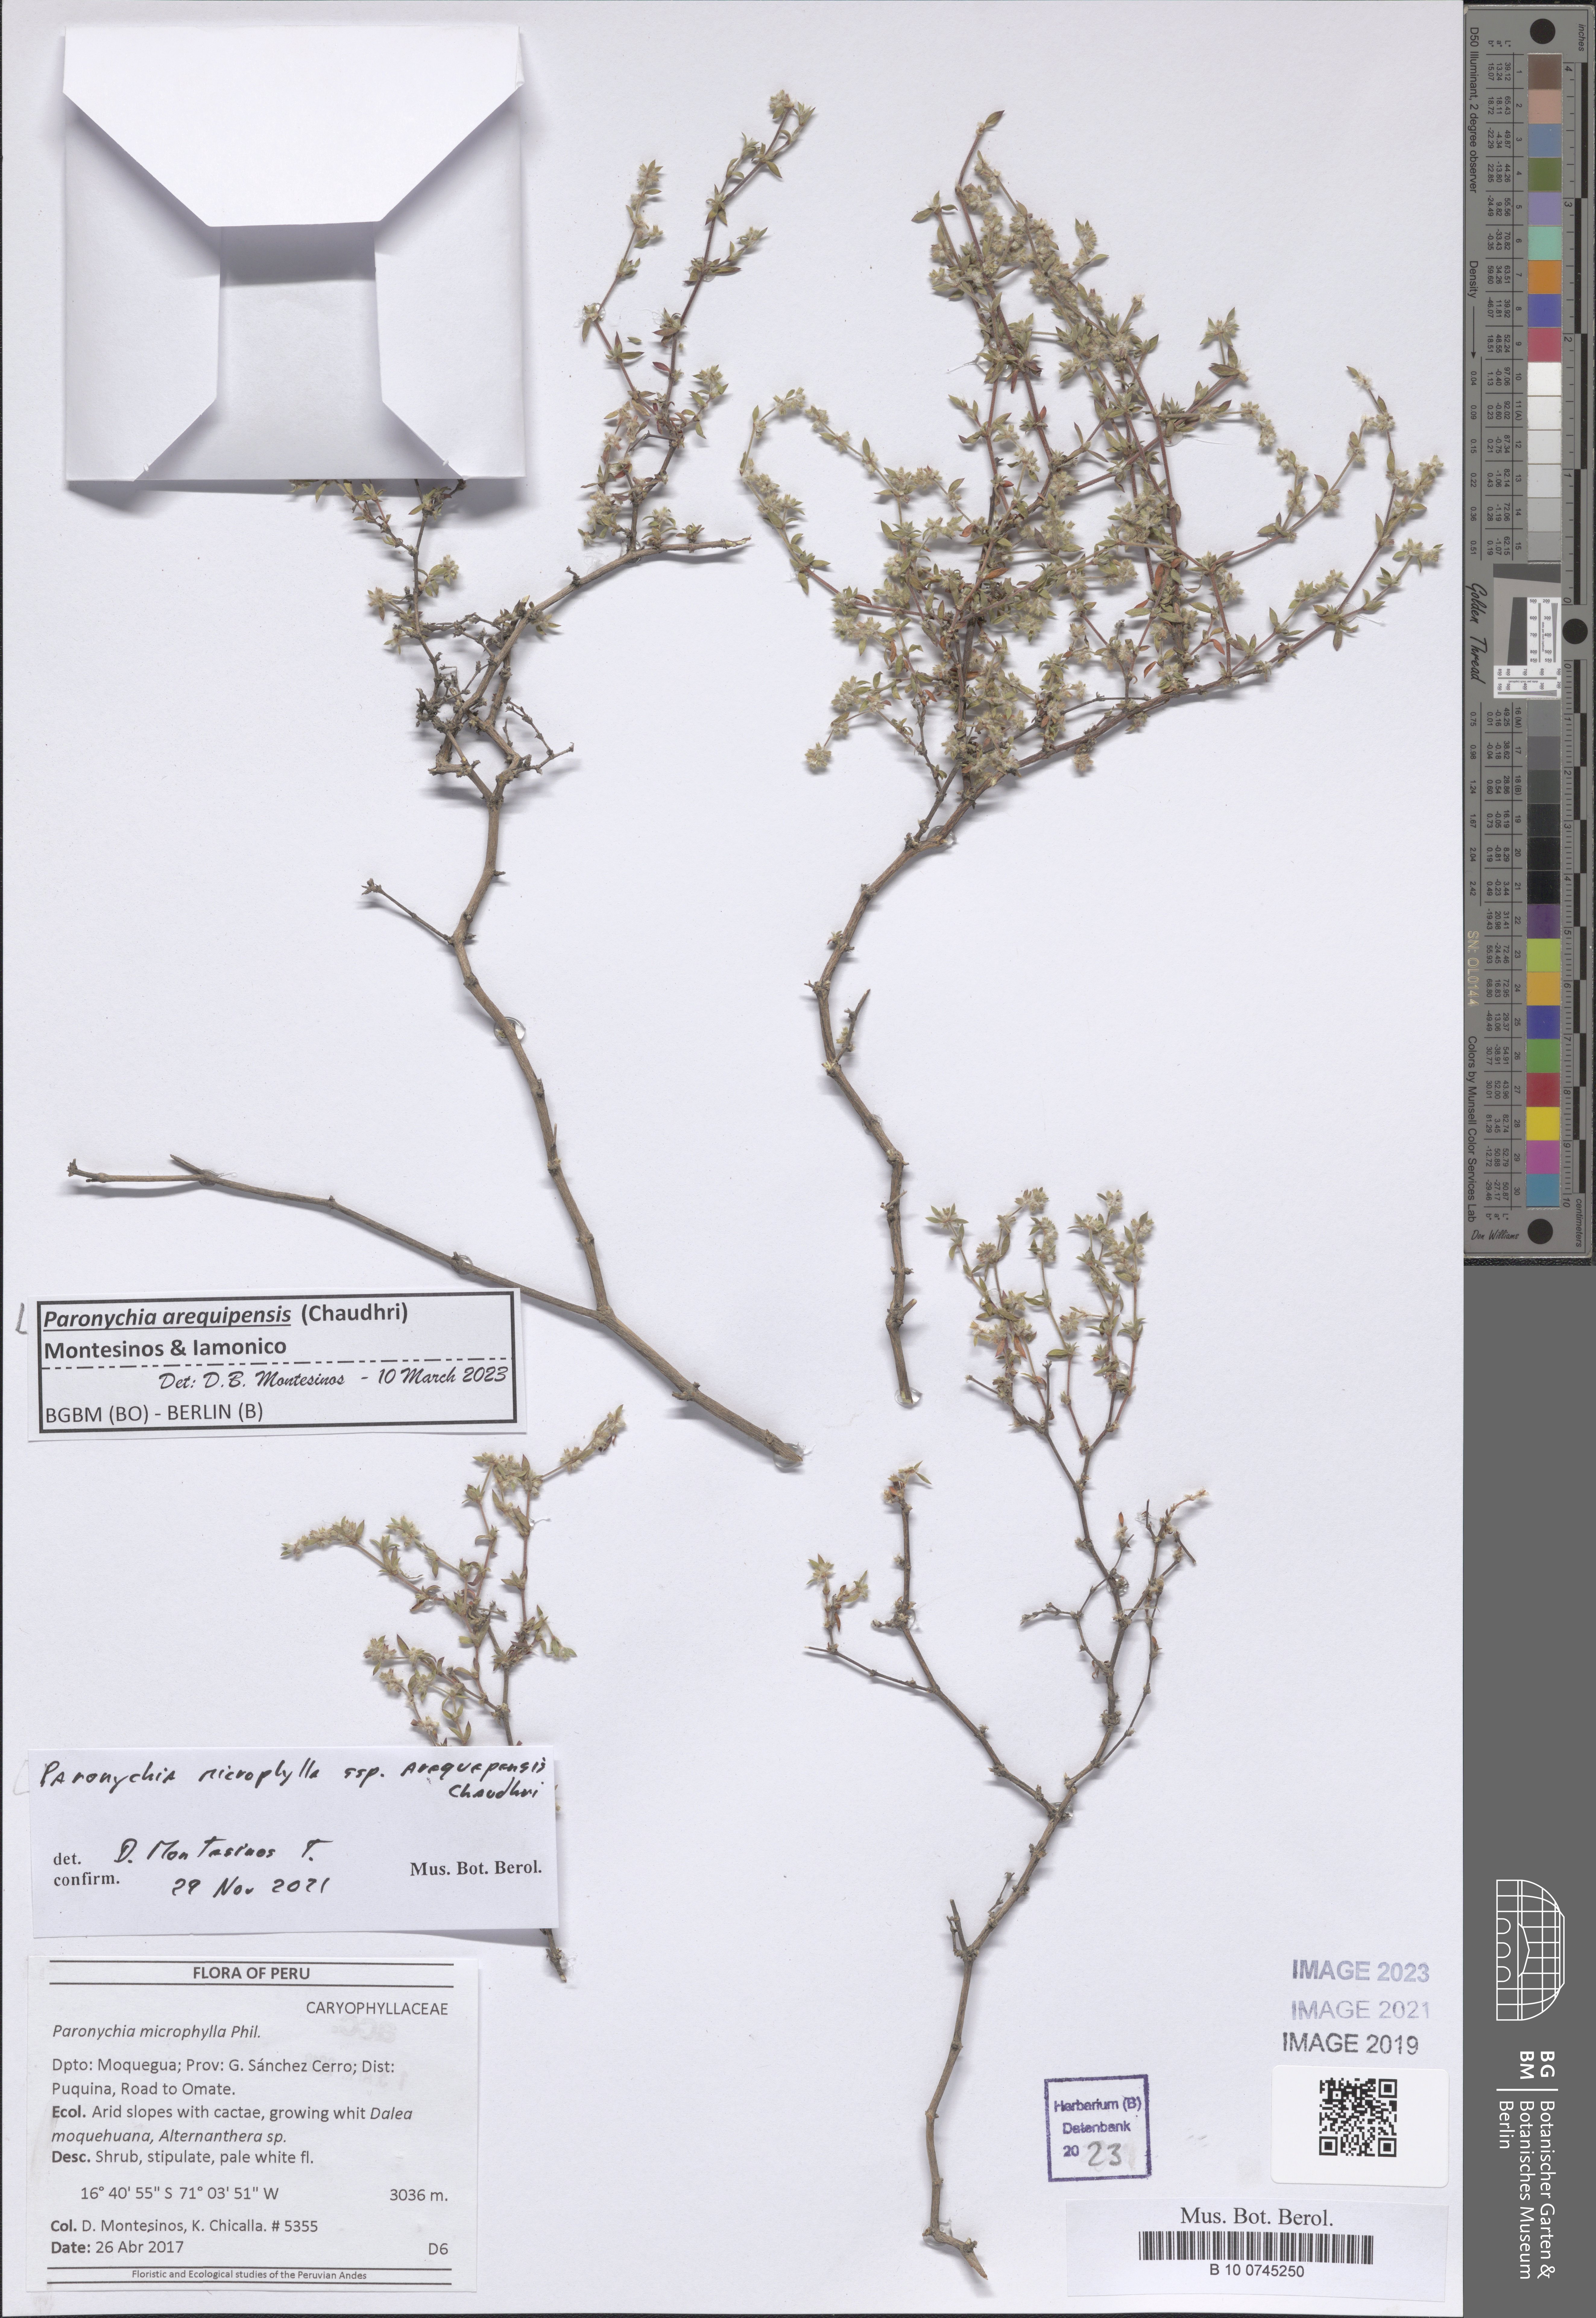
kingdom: Plantae
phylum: Tracheophyta
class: Magnoliopsida
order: Caryophyllales
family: Caryophyllaceae
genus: Paronychia
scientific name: Paronychia
